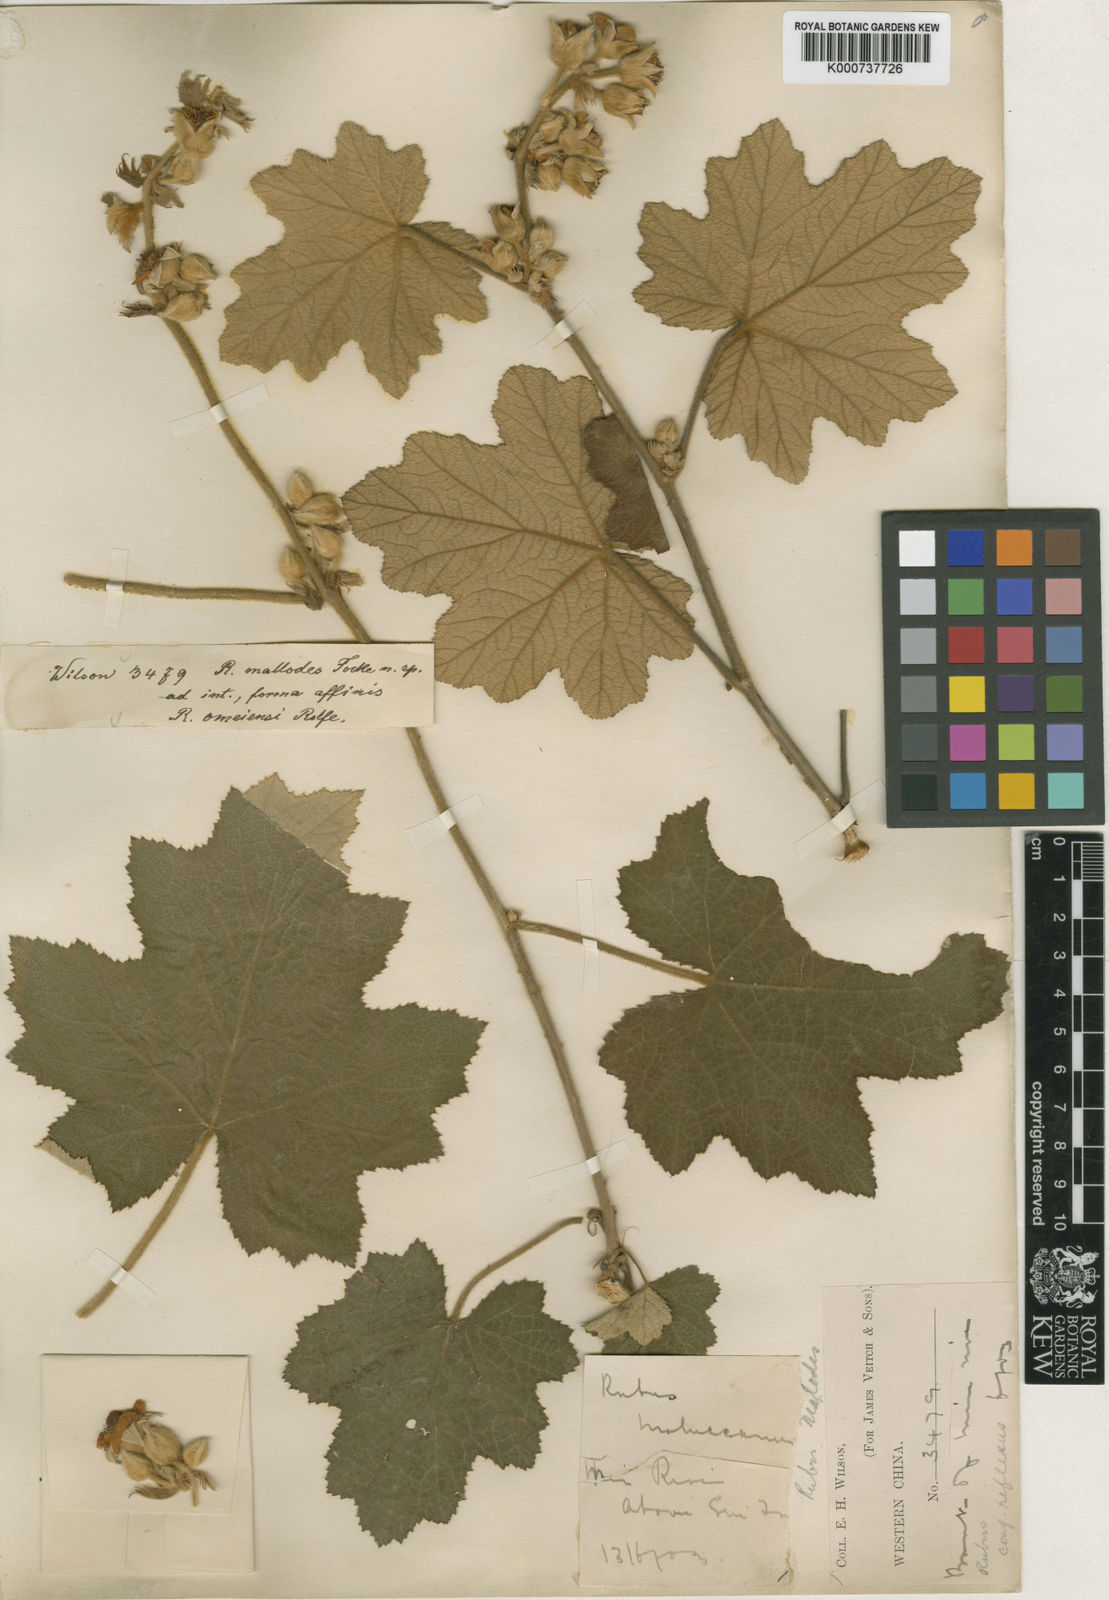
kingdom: Plantae
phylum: Tracheophyta
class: Magnoliopsida
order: Rosales
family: Rosaceae
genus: Rubus
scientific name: Rubus clinocephalus
